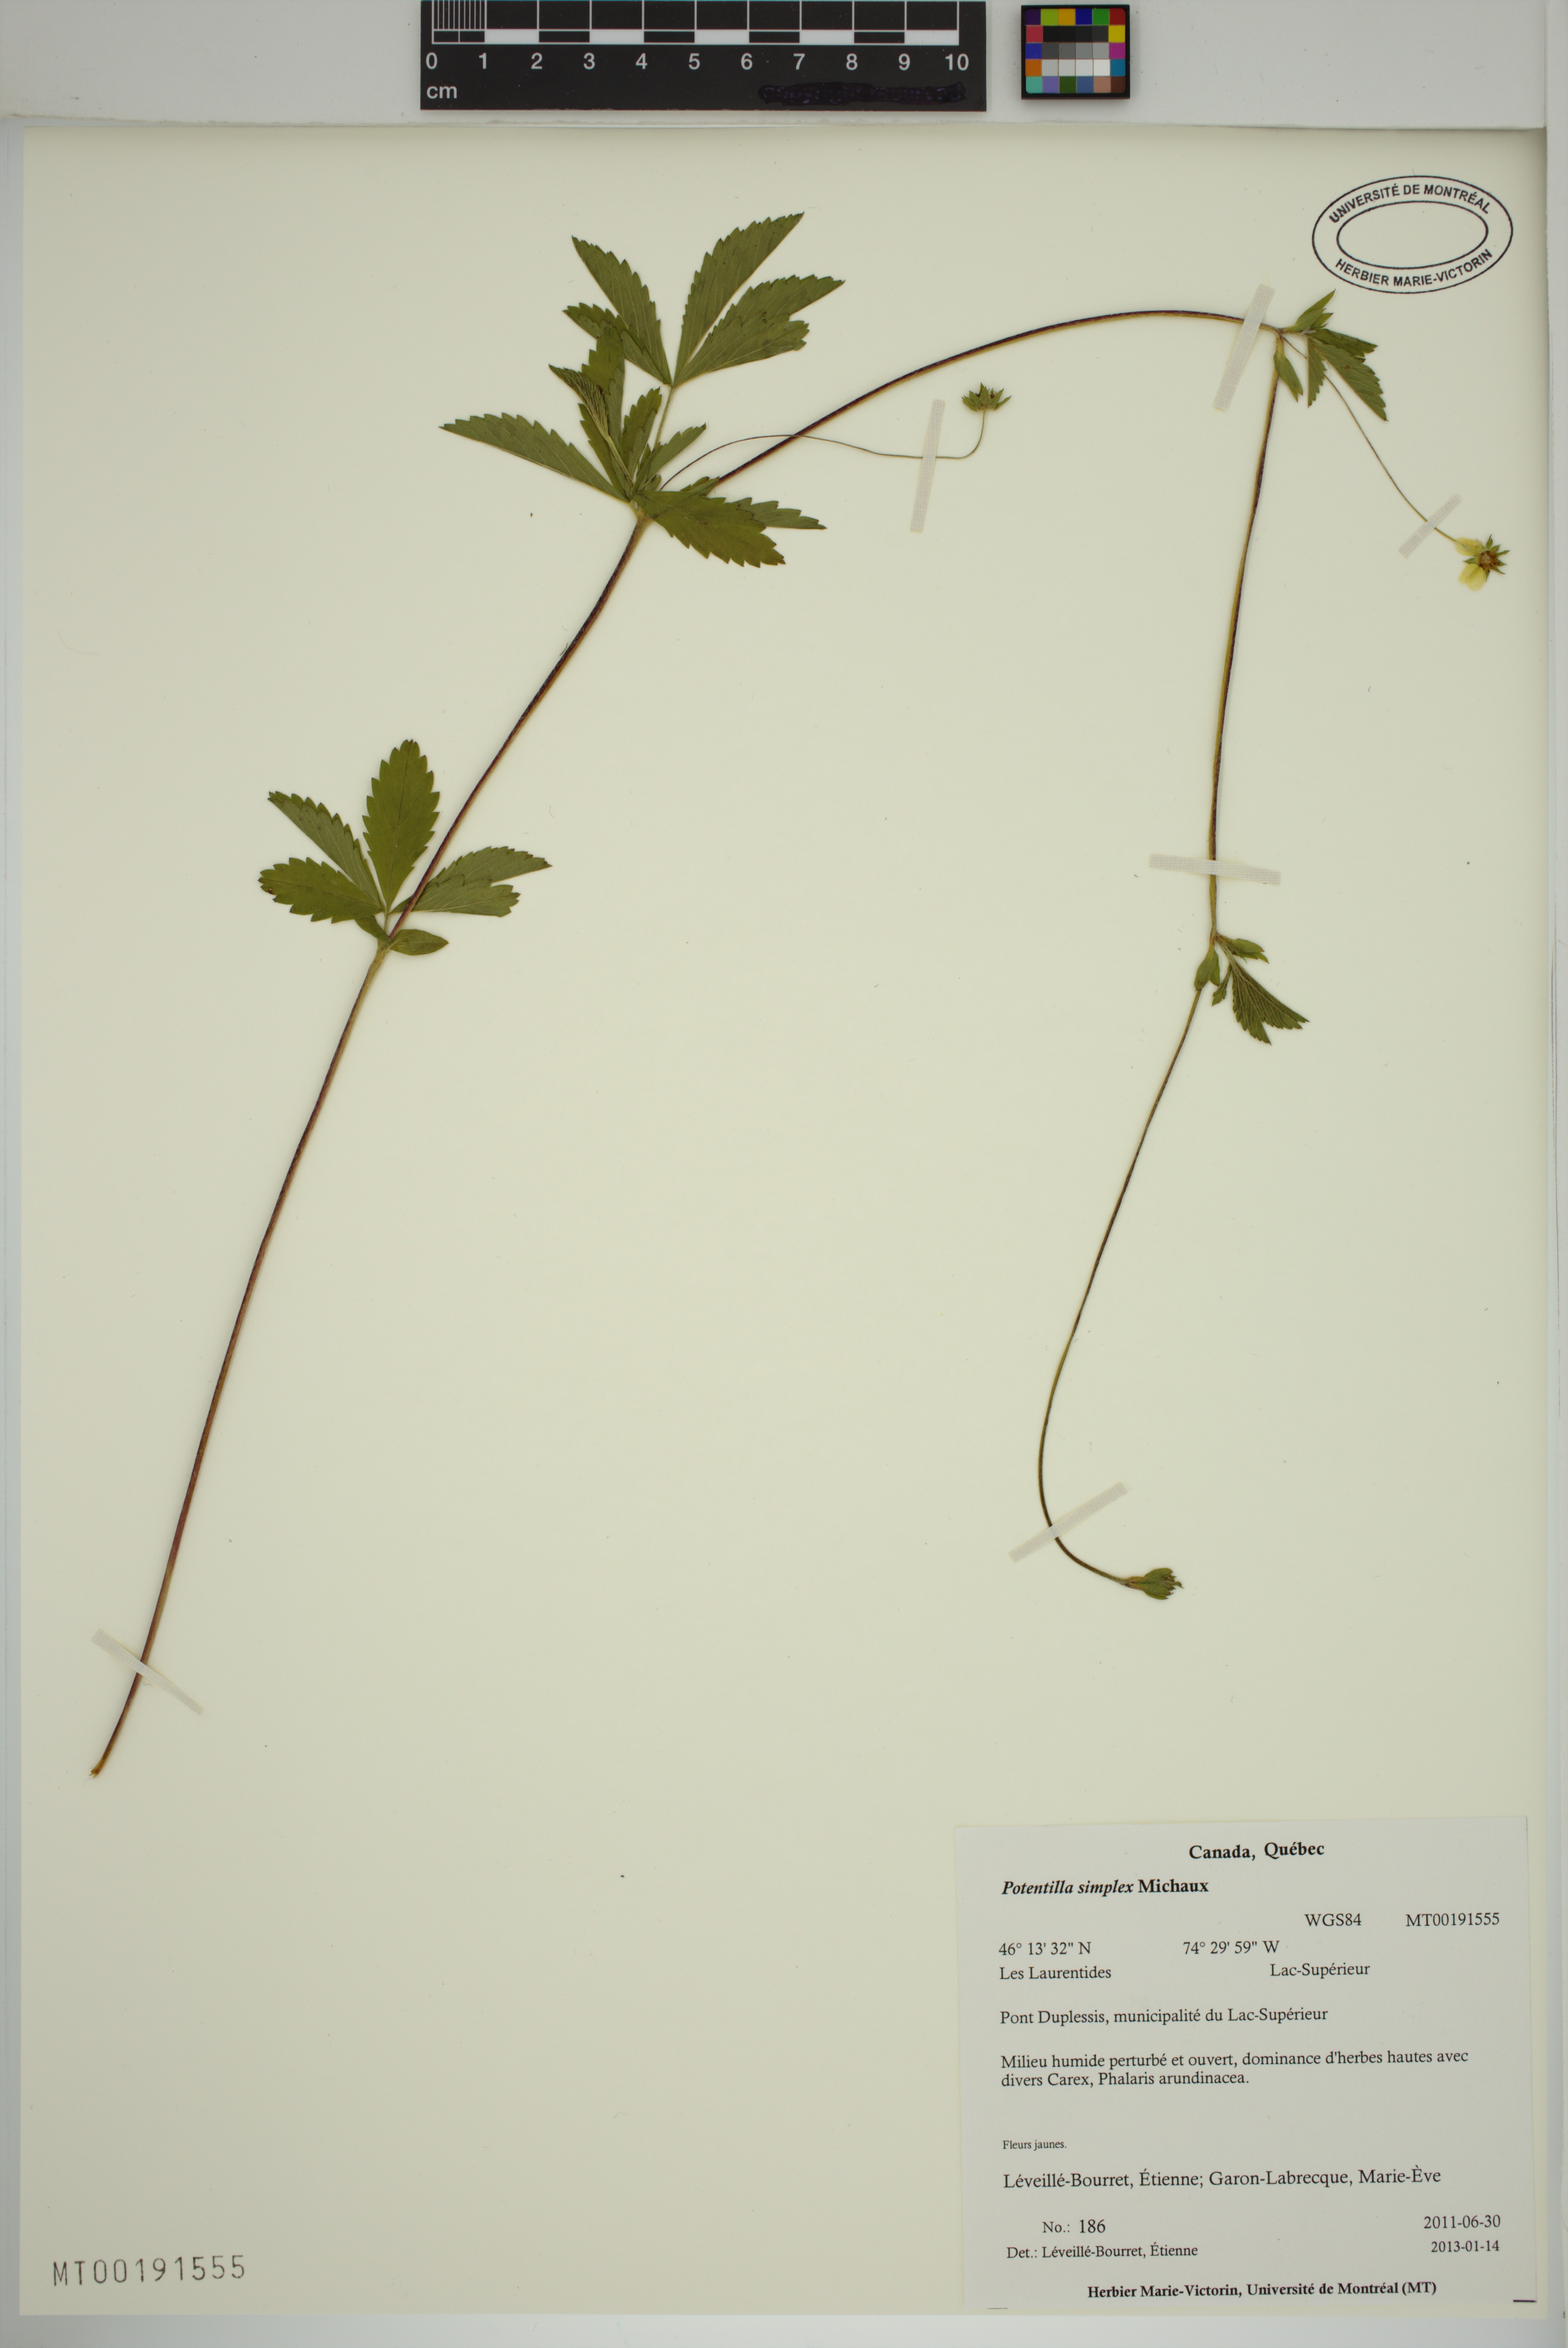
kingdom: Plantae
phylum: Tracheophyta
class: Magnoliopsida
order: Rosales
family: Rosaceae
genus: Potentilla
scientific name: Potentilla simplex
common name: Old field cinquefoil
